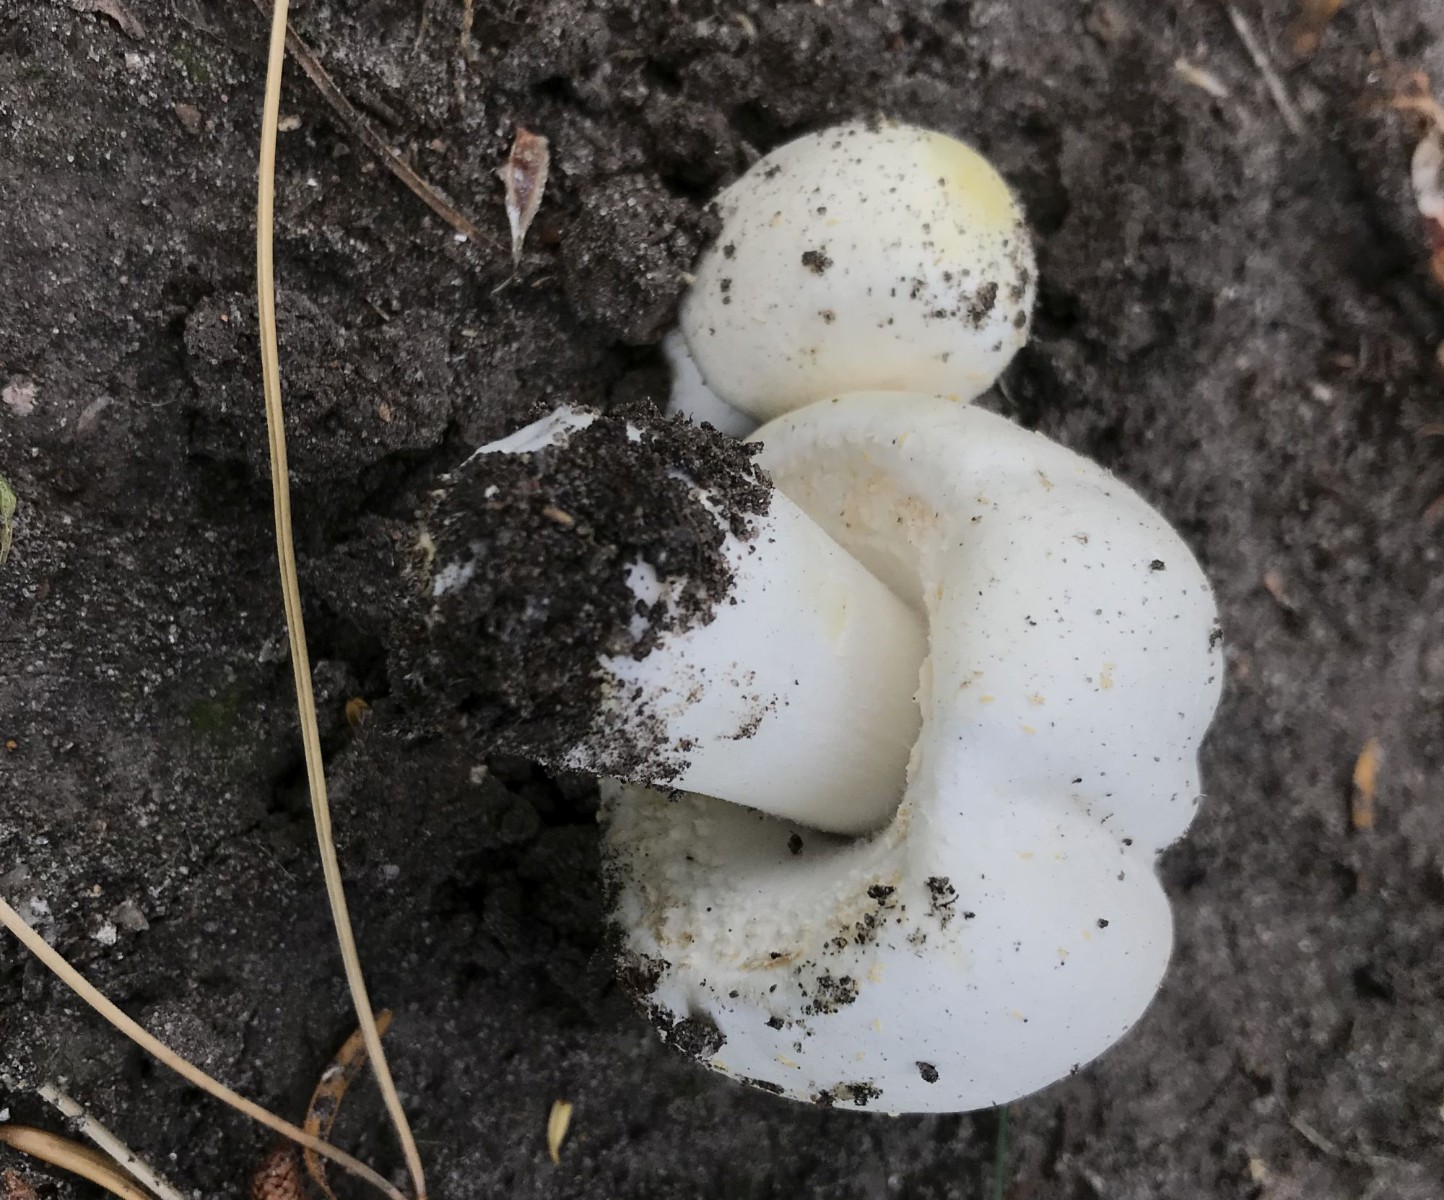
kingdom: Fungi
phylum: Basidiomycota
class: Agaricomycetes
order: Agaricales
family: Agaricaceae
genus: Agaricus
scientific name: Agaricus arvensis
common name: ager-champignon
